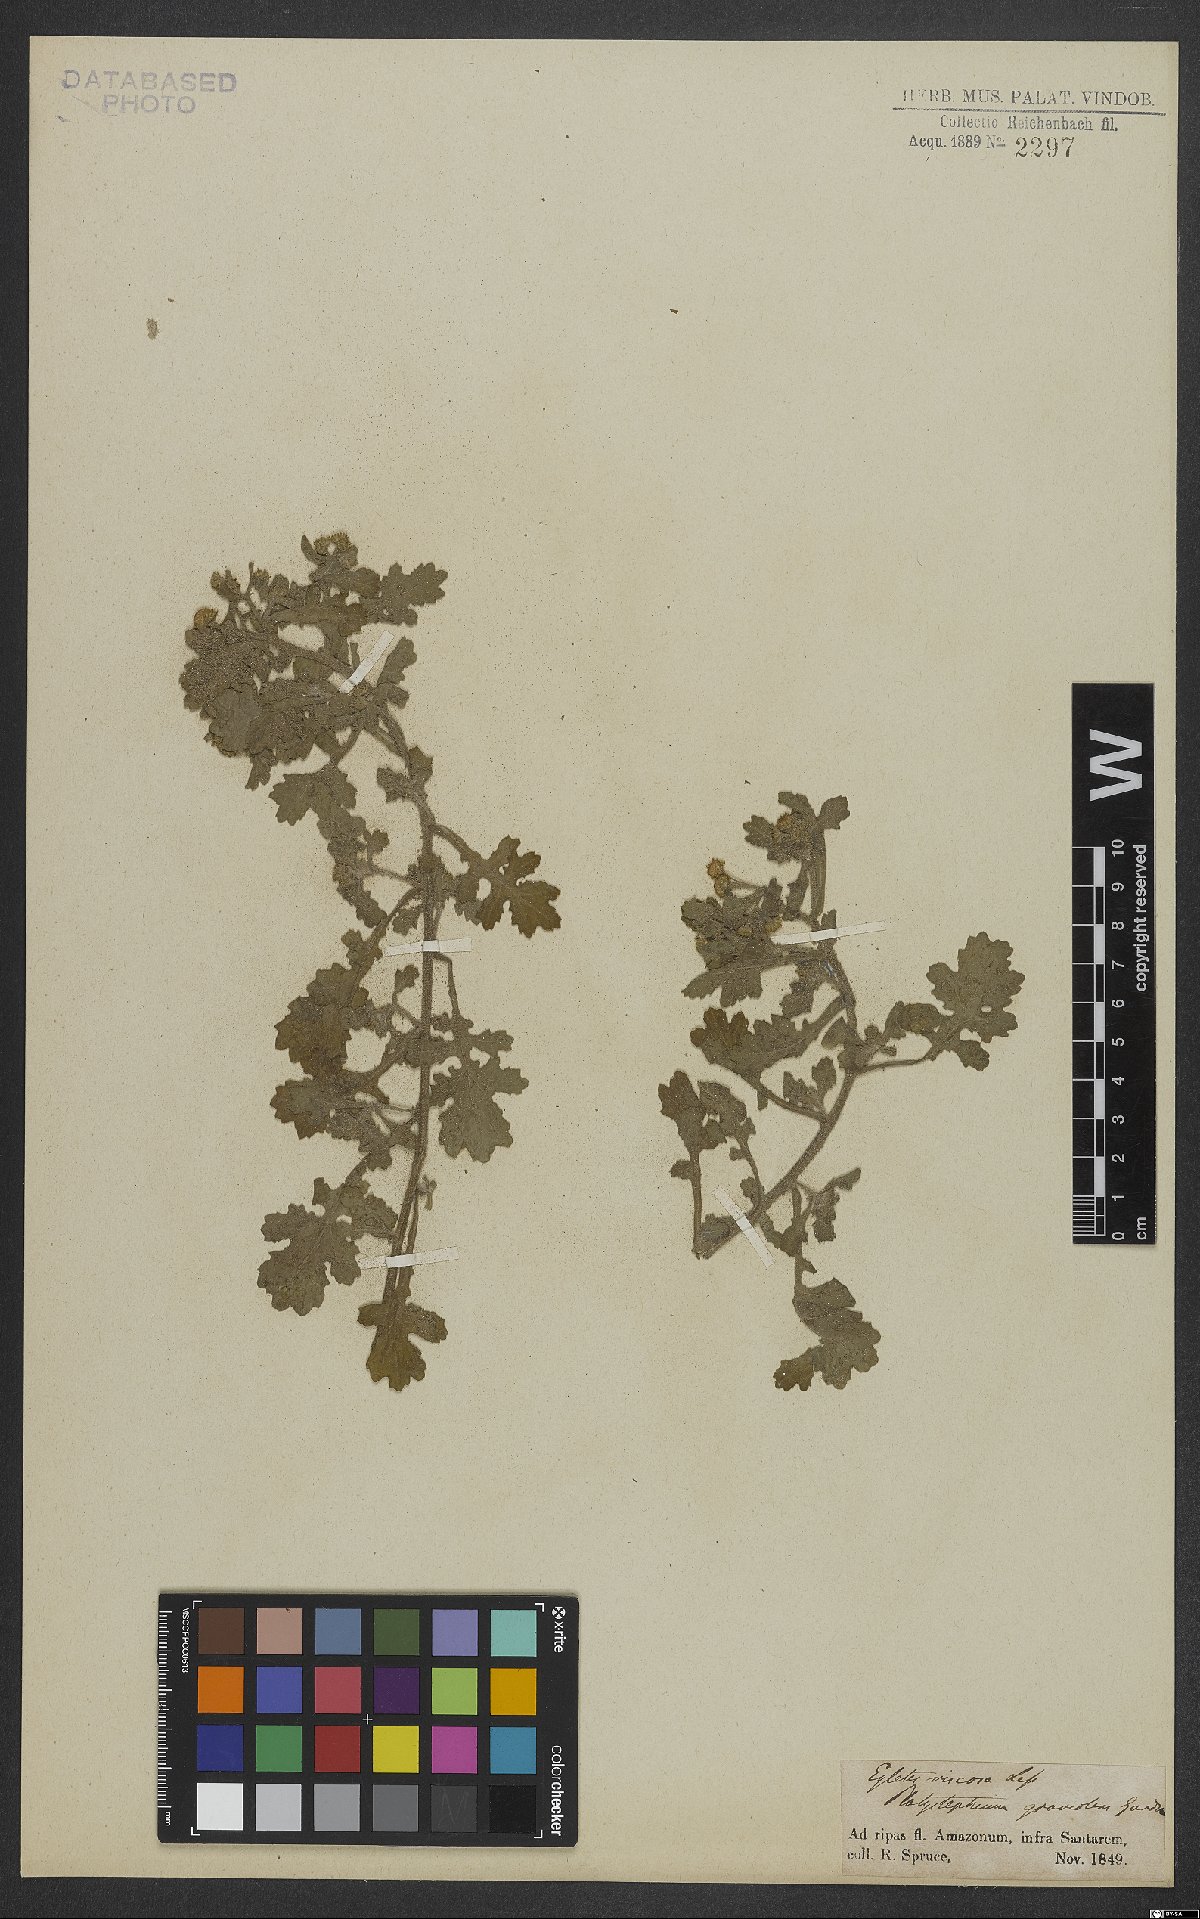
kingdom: Plantae
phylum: Tracheophyta
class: Magnoliopsida
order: Asterales
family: Asteraceae
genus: Egletes
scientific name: Egletes viscosa
